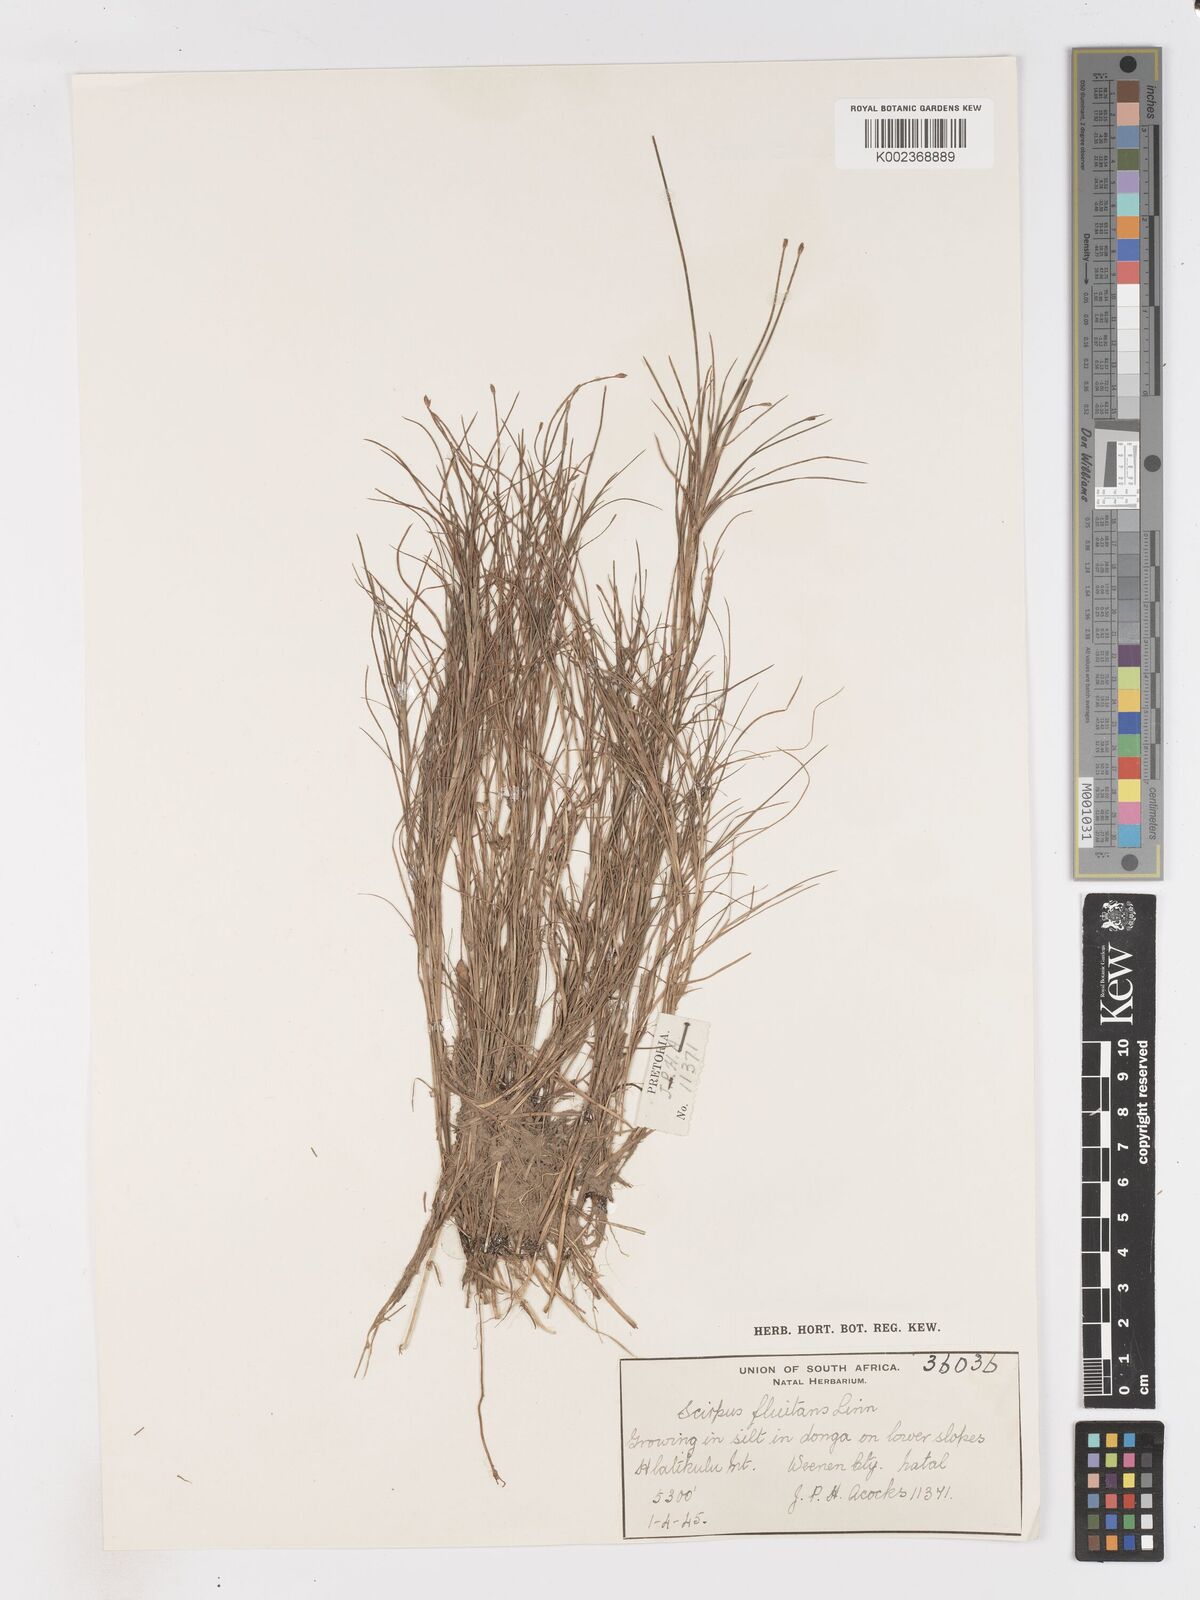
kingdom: Plantae
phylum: Tracheophyta
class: Liliopsida
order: Poales
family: Cyperaceae
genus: Isolepis
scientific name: Isolepis fluitans
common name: Floating club-rush
